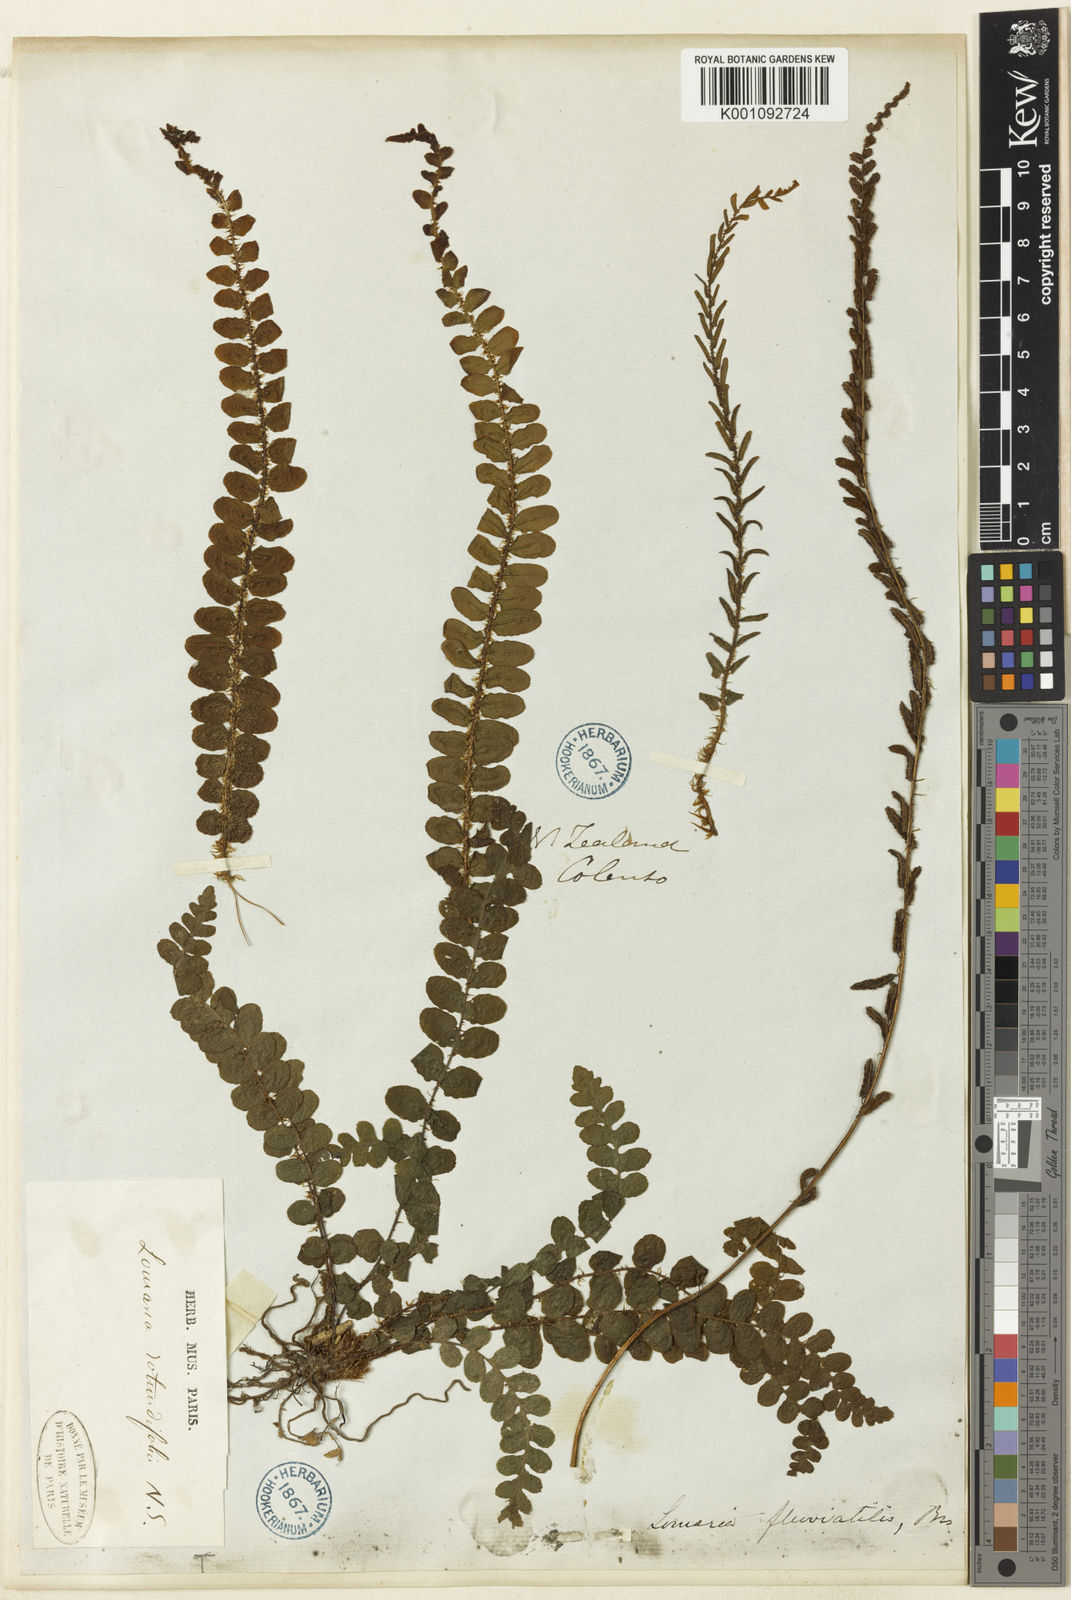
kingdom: Plantae
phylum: Tracheophyta
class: Polypodiopsida
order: Polypodiales
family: Blechnaceae
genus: Blechnum
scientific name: Blechnum
